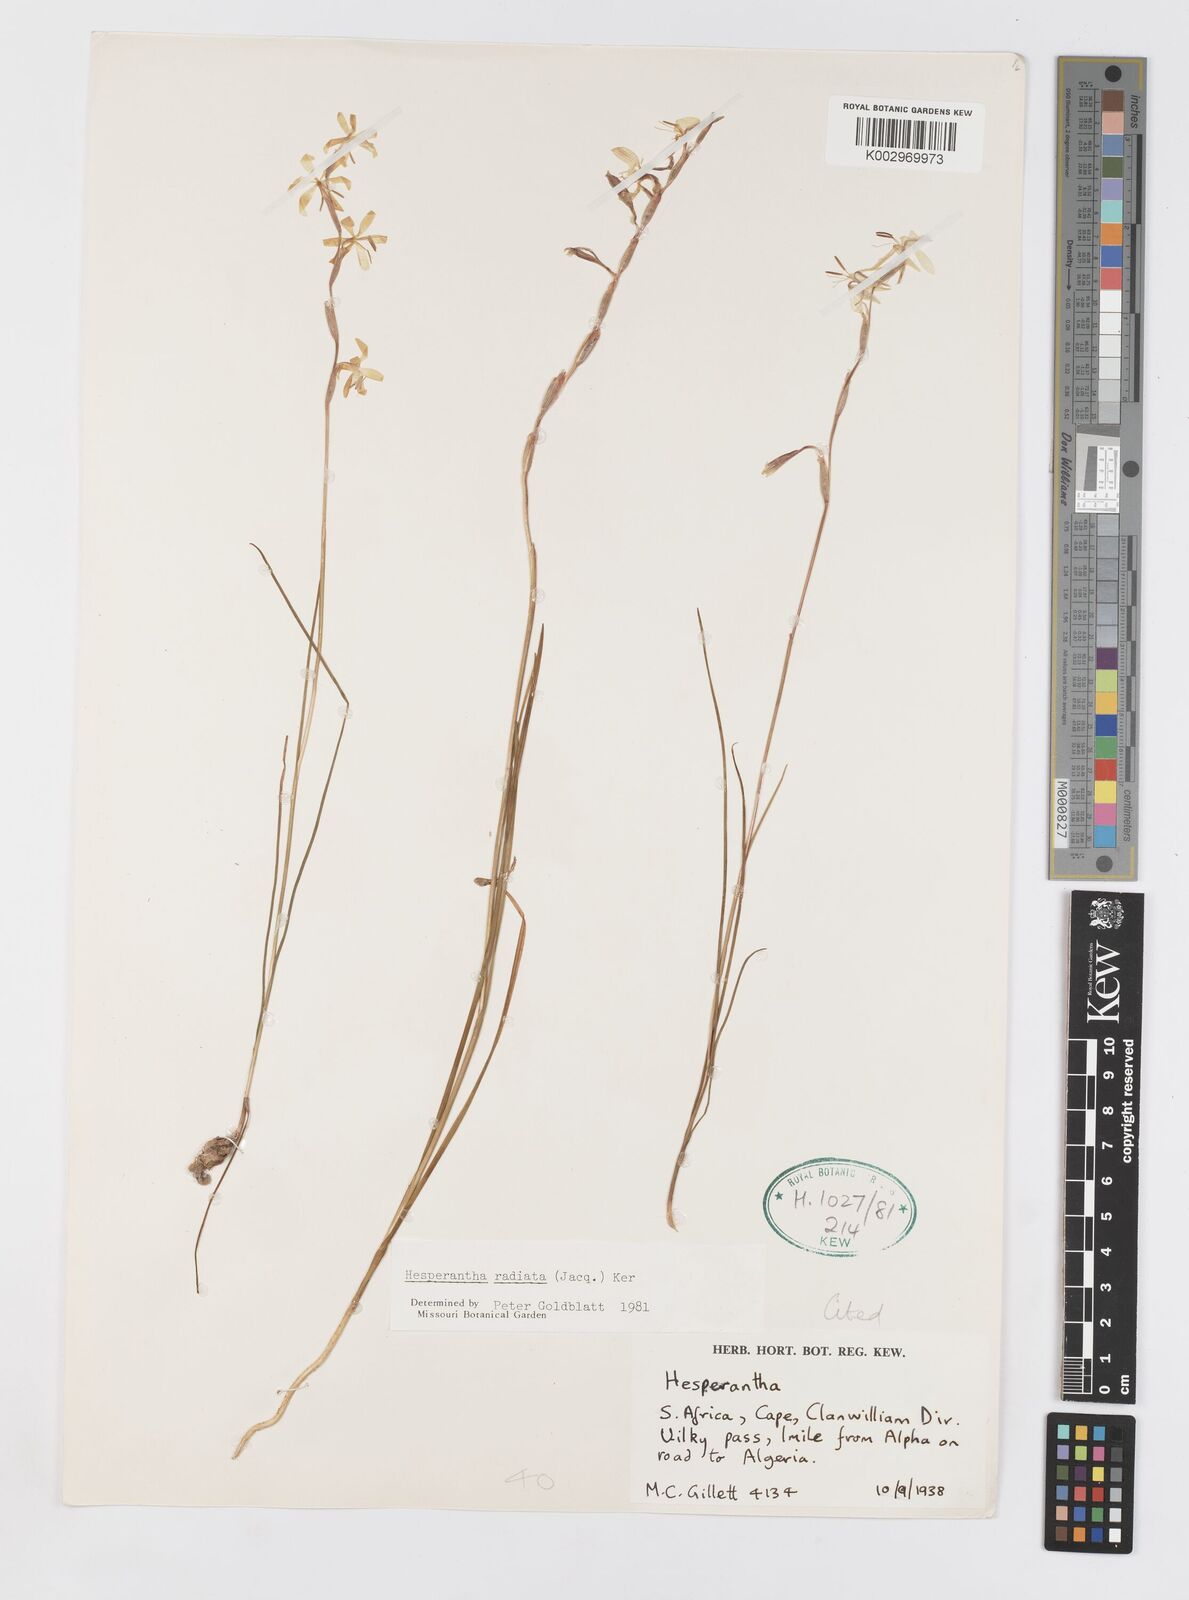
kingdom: Plantae
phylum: Tracheophyta
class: Liliopsida
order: Asparagales
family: Iridaceae
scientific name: Iridaceae
